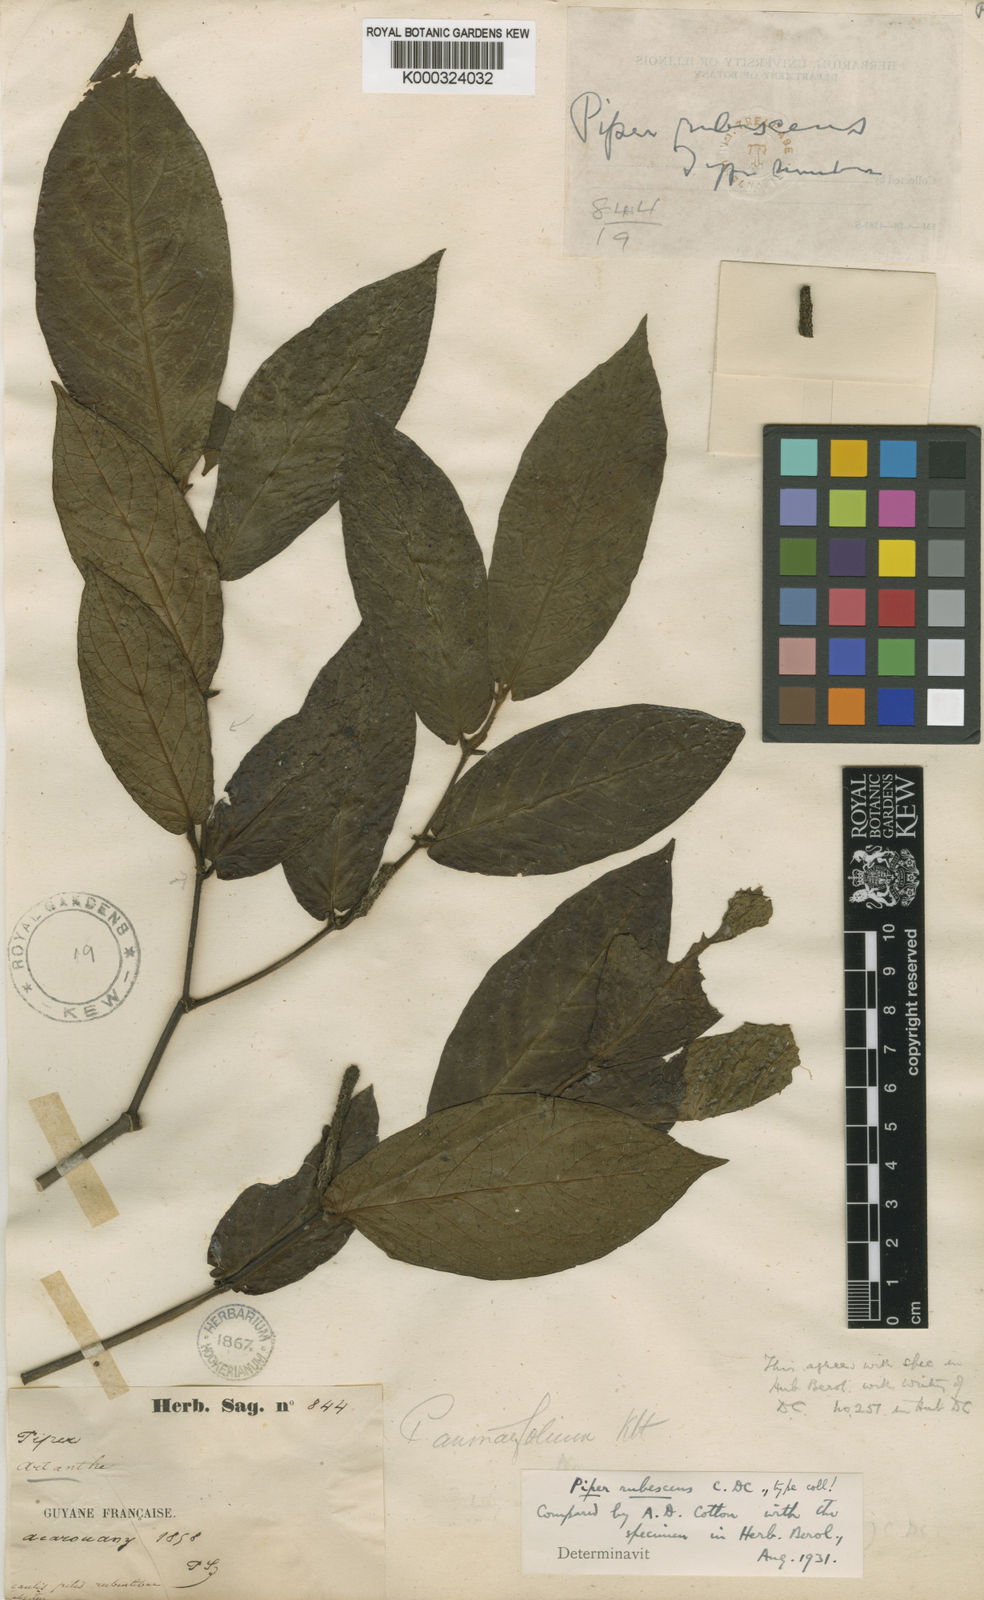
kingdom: Plantae
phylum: Tracheophyta
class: Magnoliopsida
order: Piperales
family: Piperaceae
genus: Piper
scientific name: Piper demeraranum
